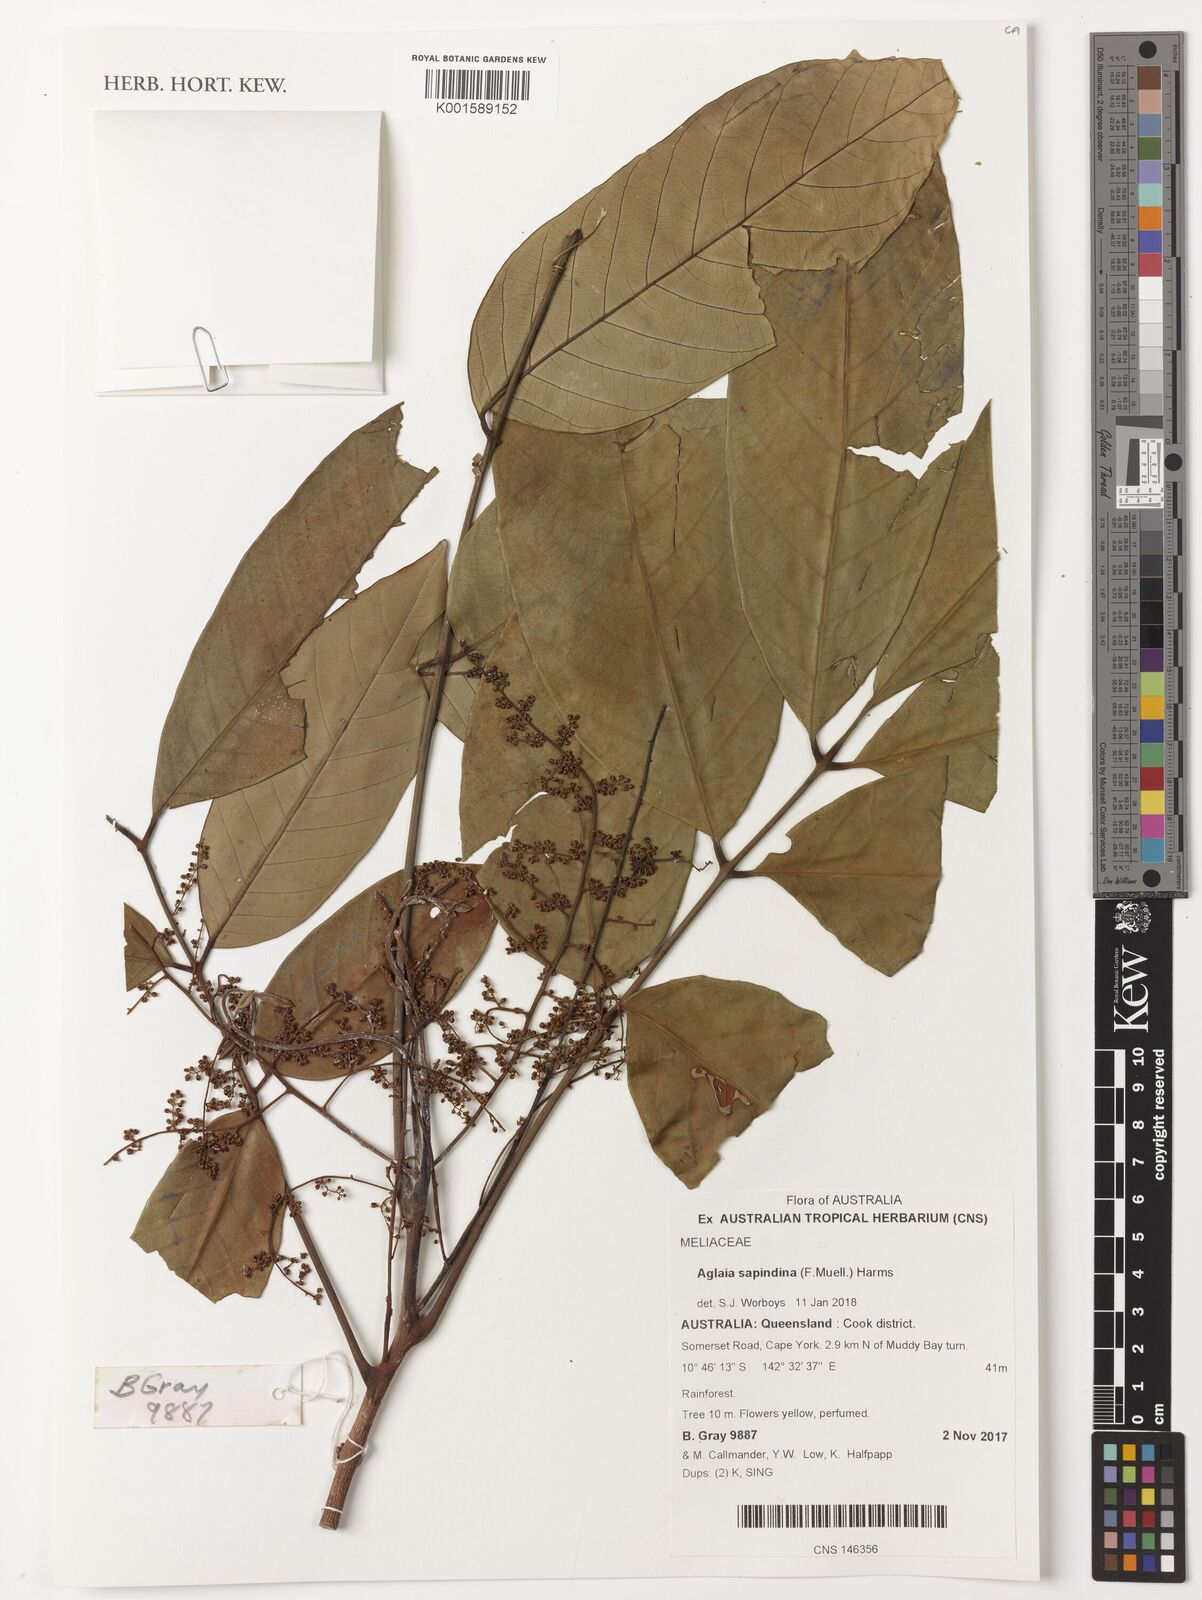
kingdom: Plantae
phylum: Tracheophyta
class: Magnoliopsida
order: Sapindales
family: Meliaceae
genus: Aglaia
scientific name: Aglaia sapindina
